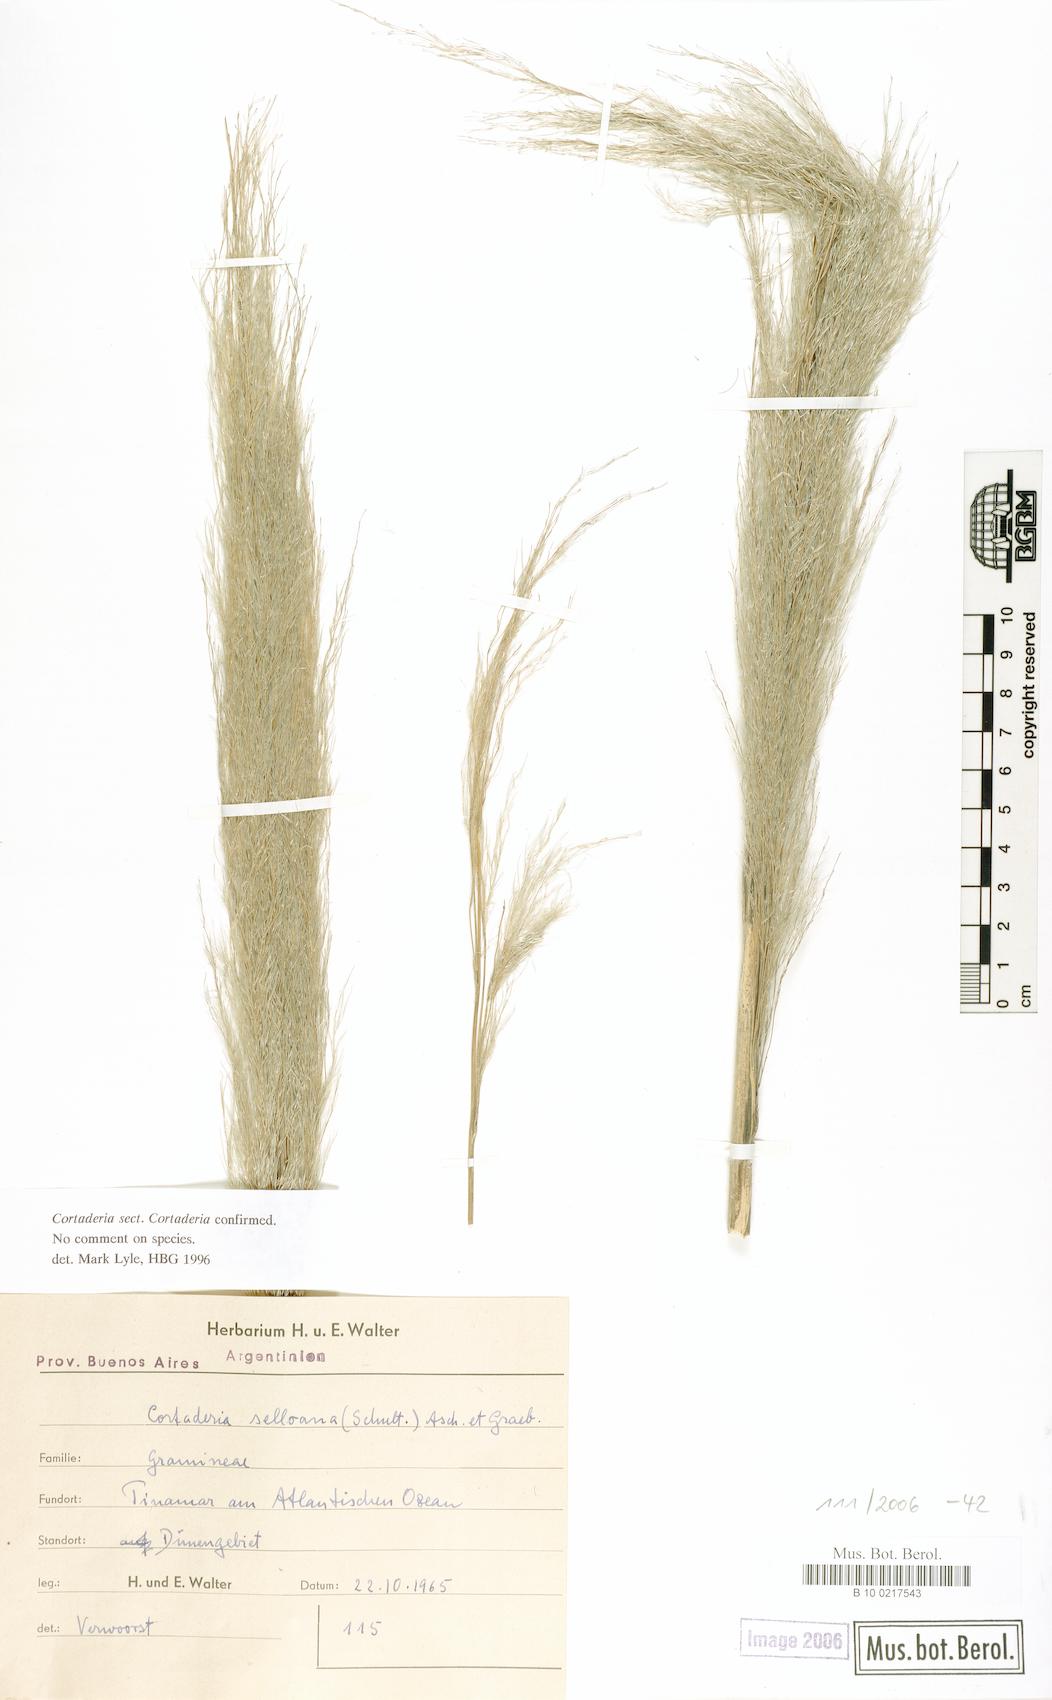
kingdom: Plantae
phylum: Tracheophyta
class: Liliopsida
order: Poales
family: Poaceae
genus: Cortaderia
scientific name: Cortaderia selloana
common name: Uruguayan pampas grass
